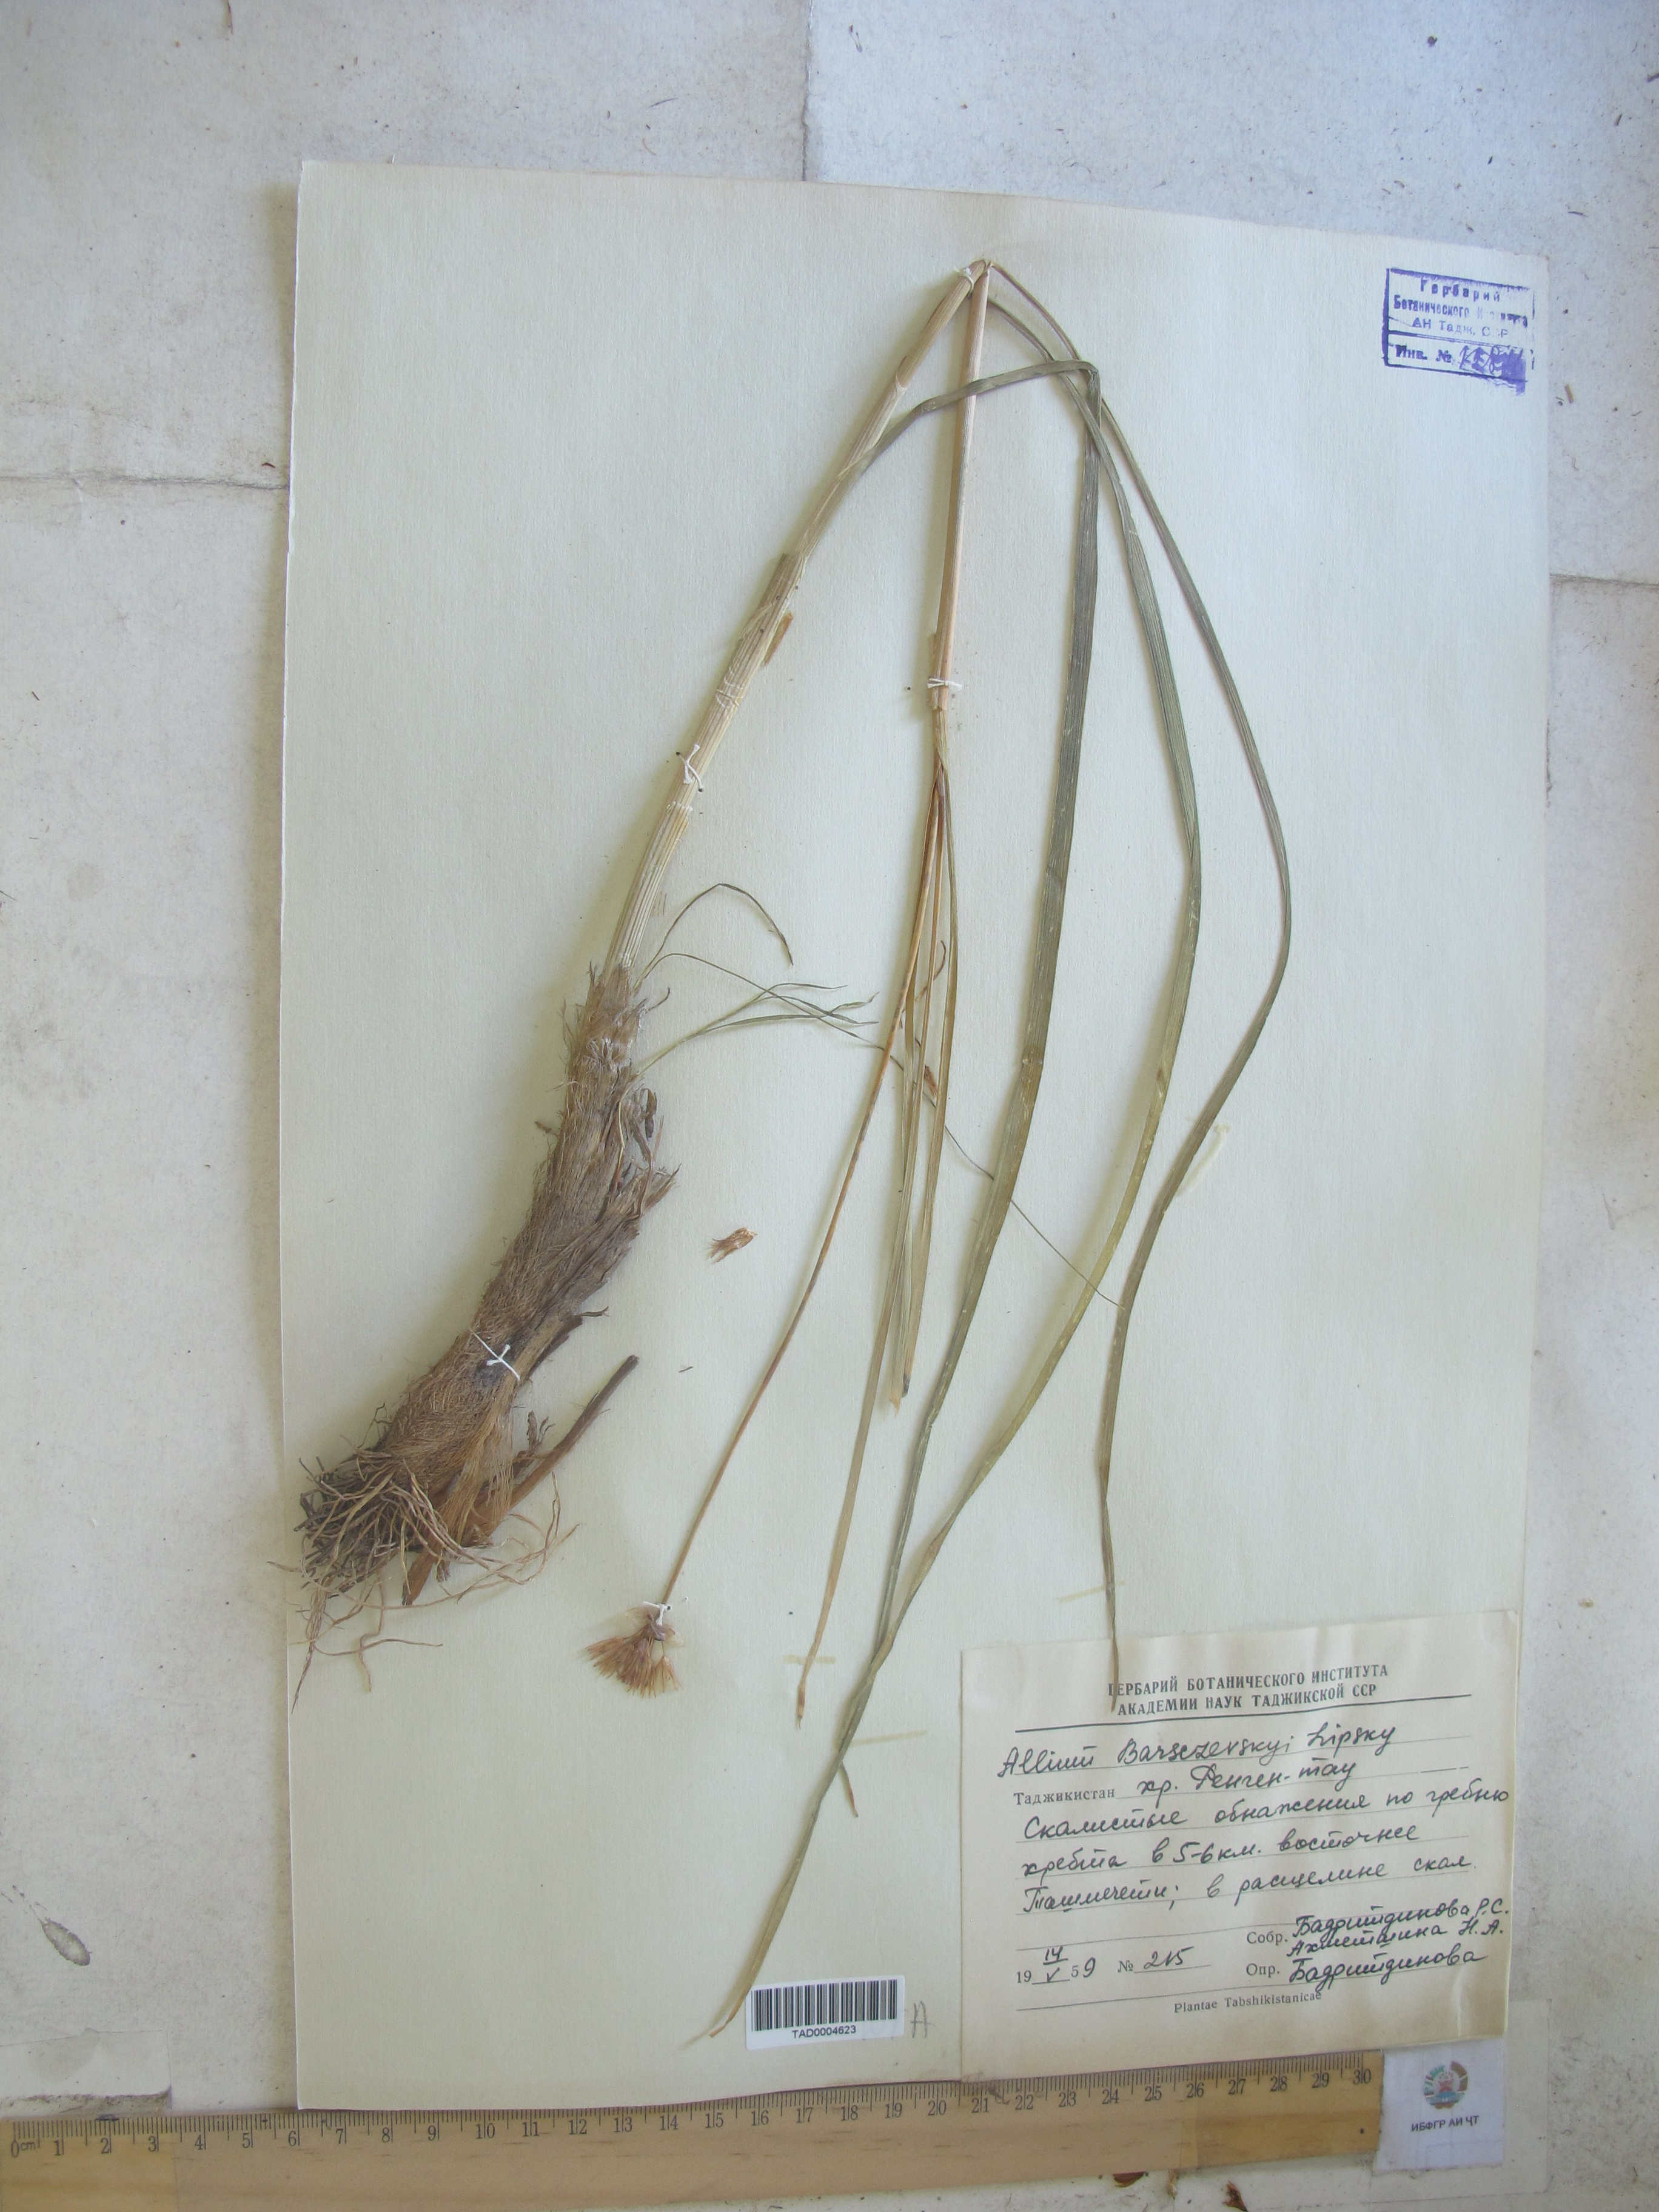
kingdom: Plantae
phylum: Tracheophyta
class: Liliopsida
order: Asparagales
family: Amaryllidaceae
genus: Allium
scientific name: Allium barsczewskii
